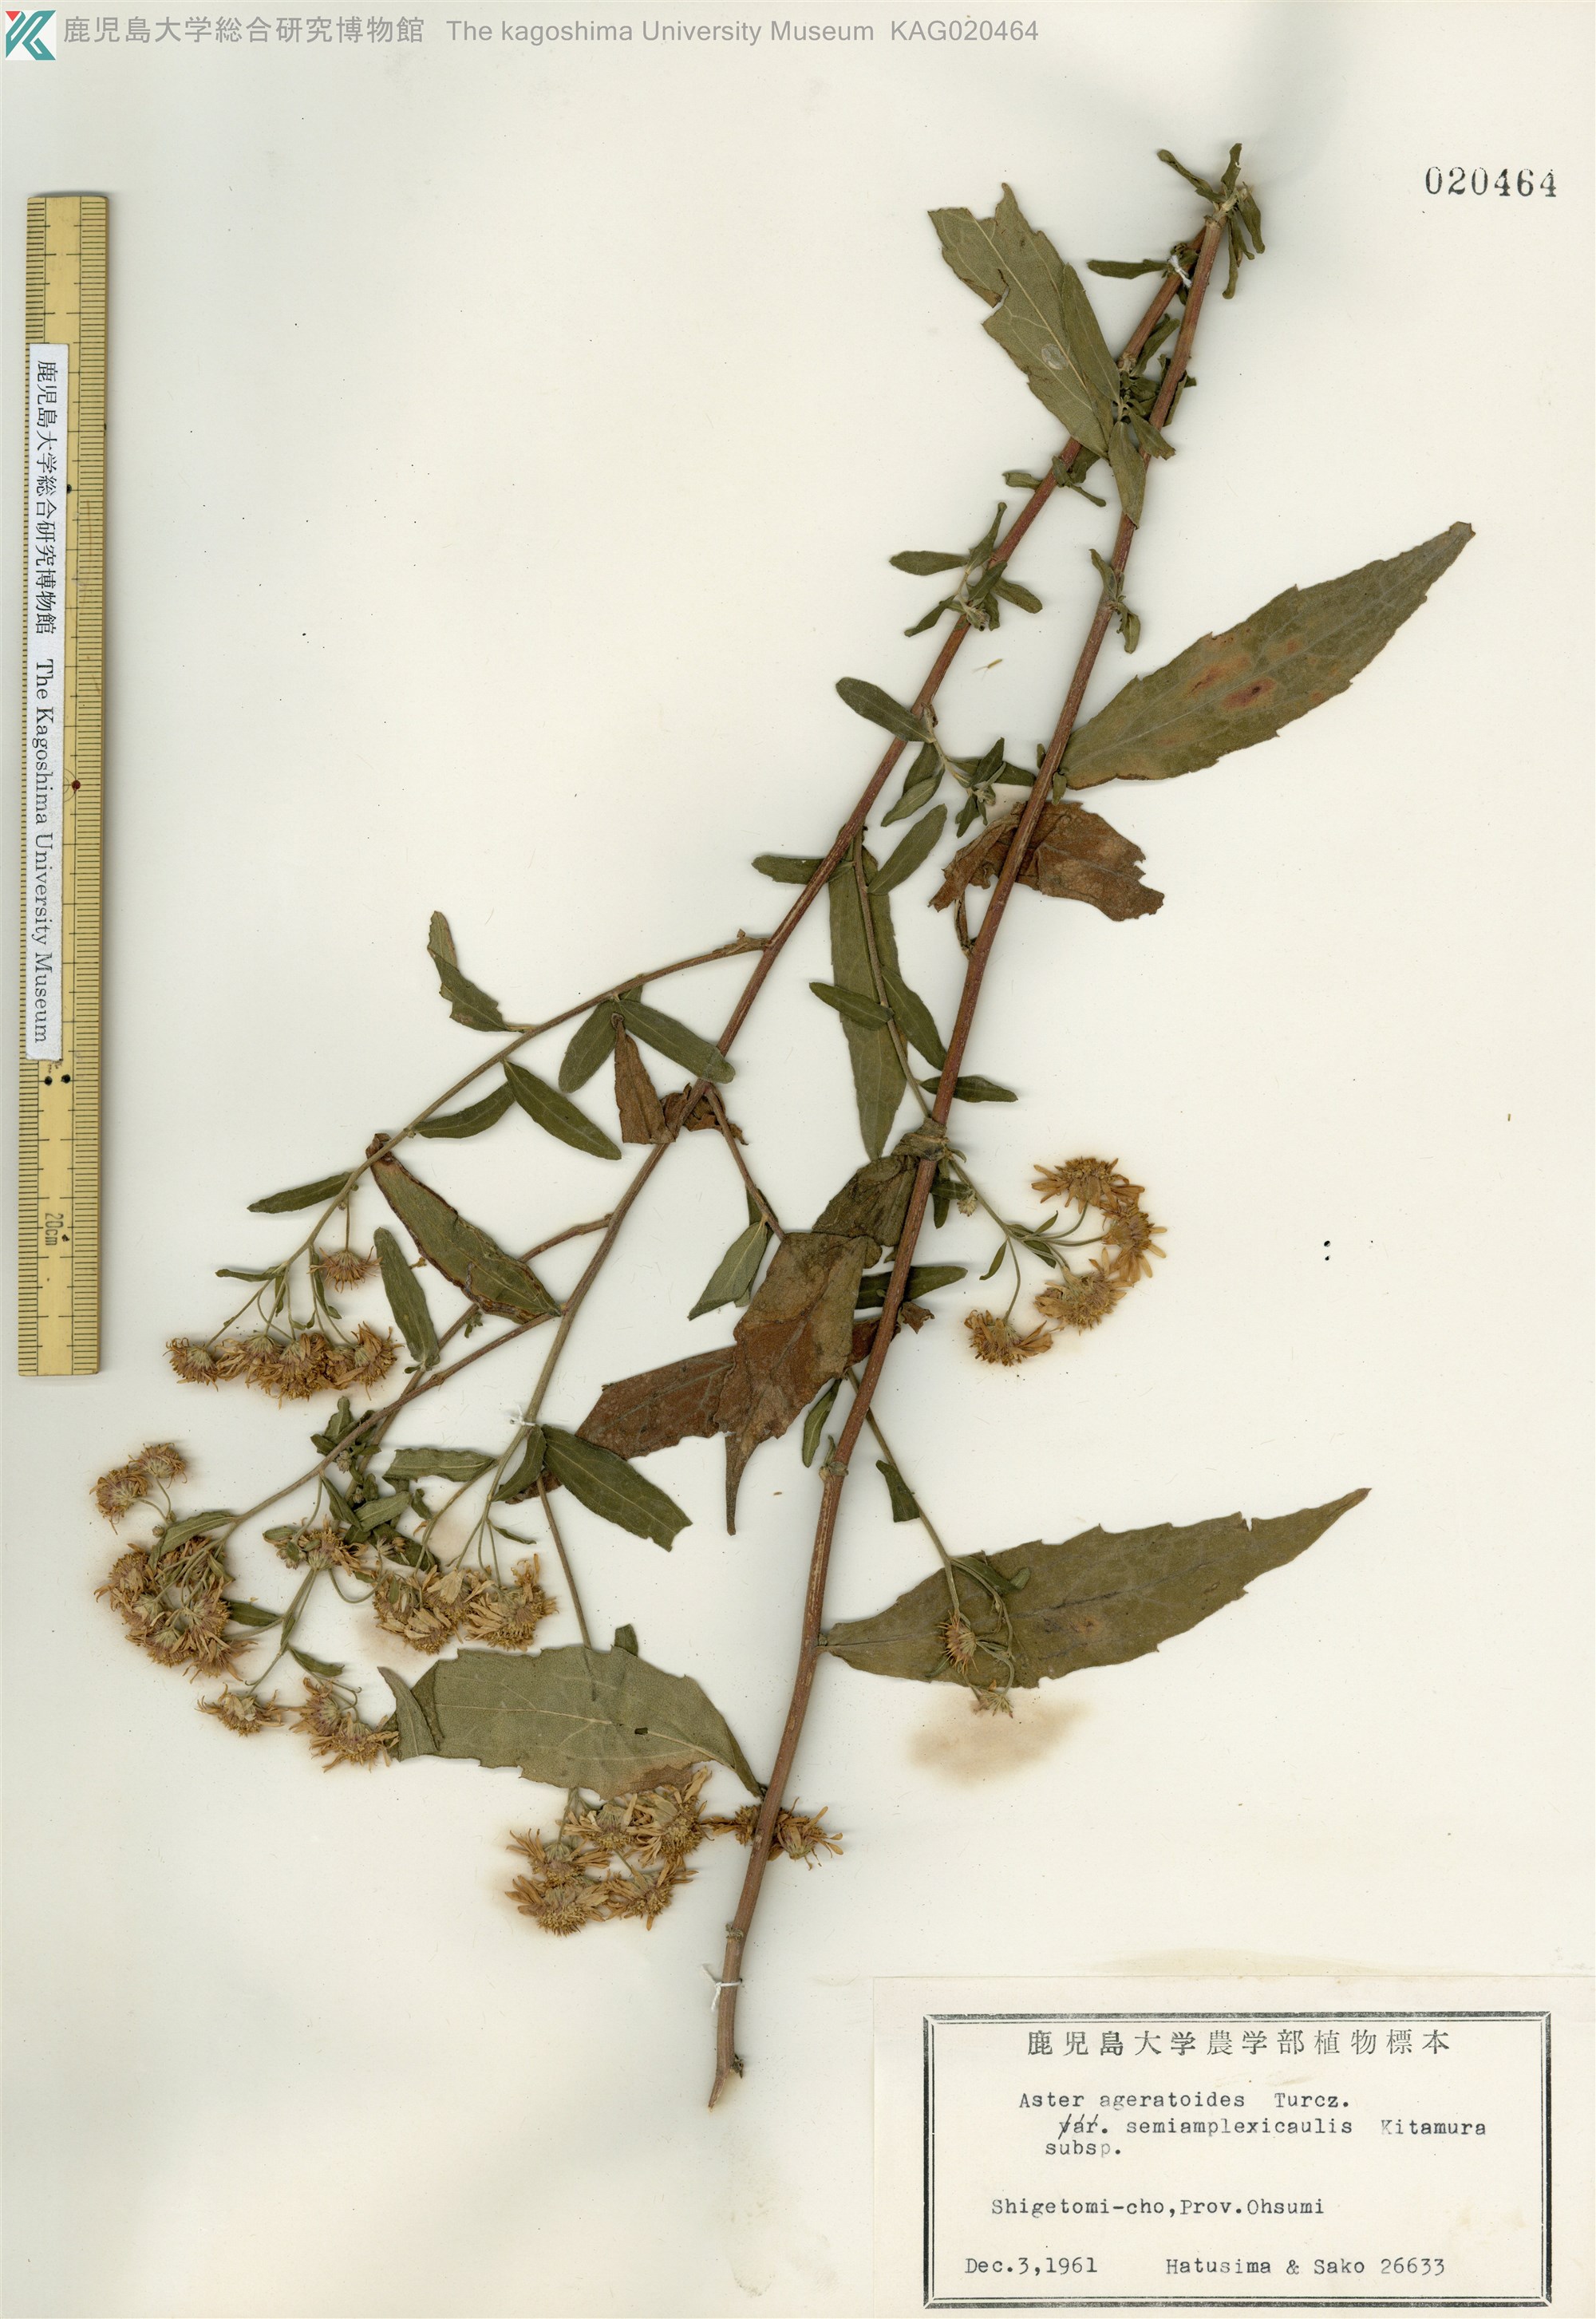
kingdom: Plantae
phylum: Tracheophyta
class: Magnoliopsida
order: Asterales
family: Asteraceae
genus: Aster
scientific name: Aster satsumensis
